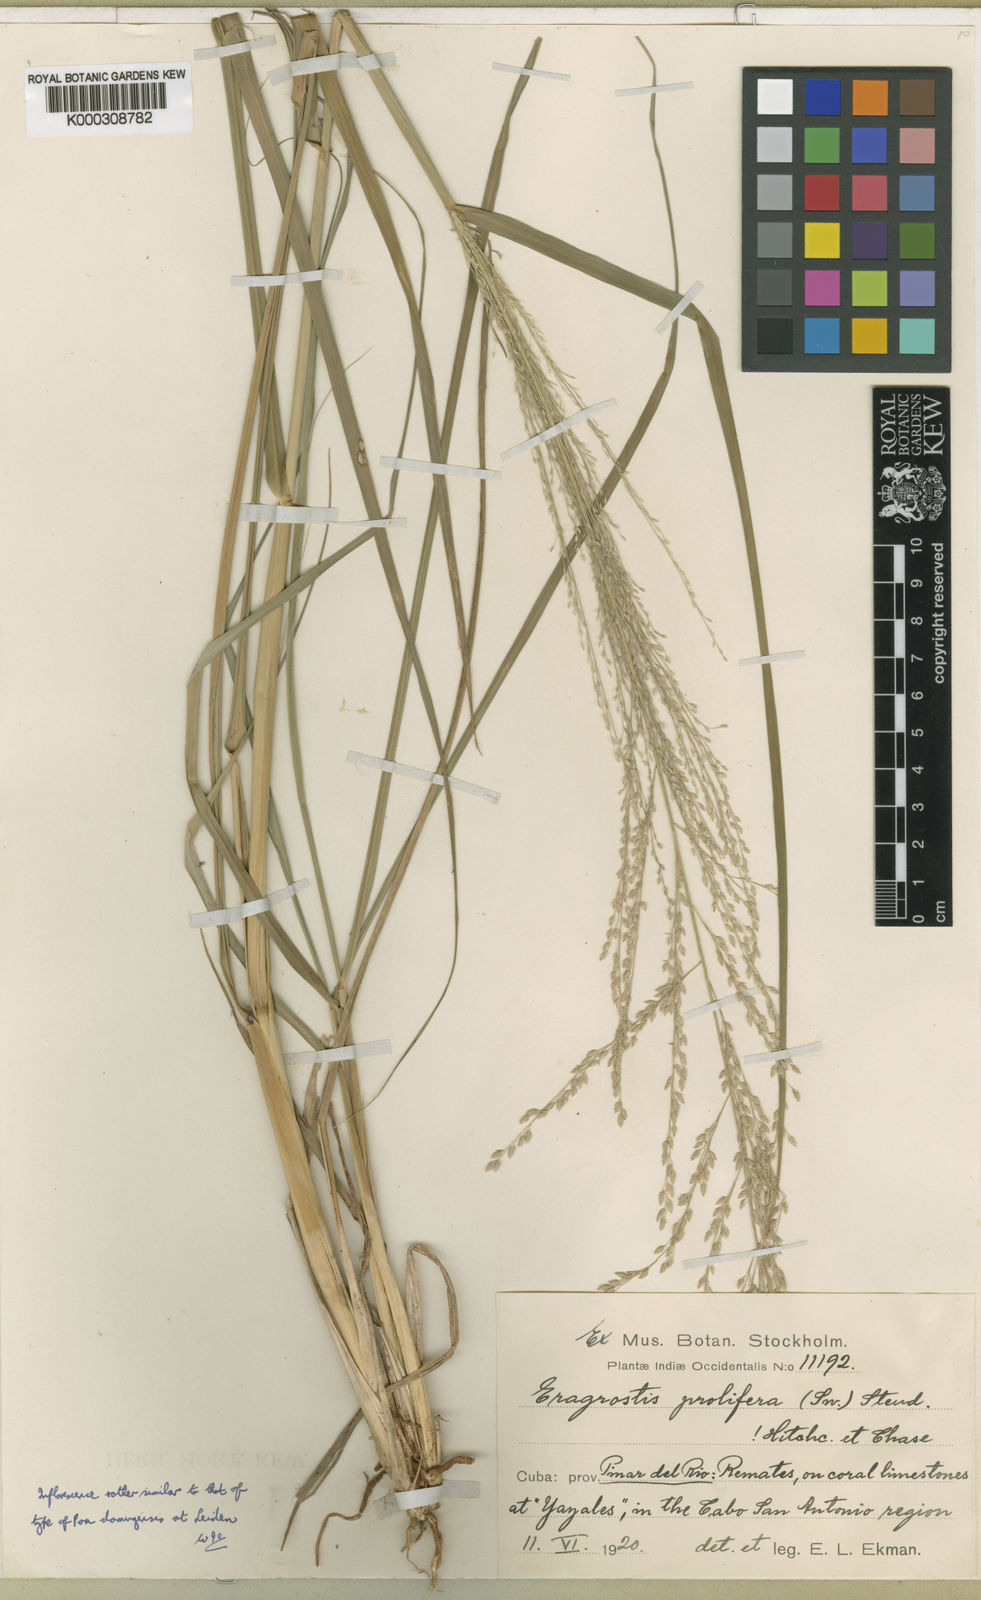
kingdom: Plantae
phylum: Tracheophyta
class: Liliopsida
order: Poales
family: Poaceae
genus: Eragrostis
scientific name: Eragrostis prolifera
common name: Dominican lovegrass
